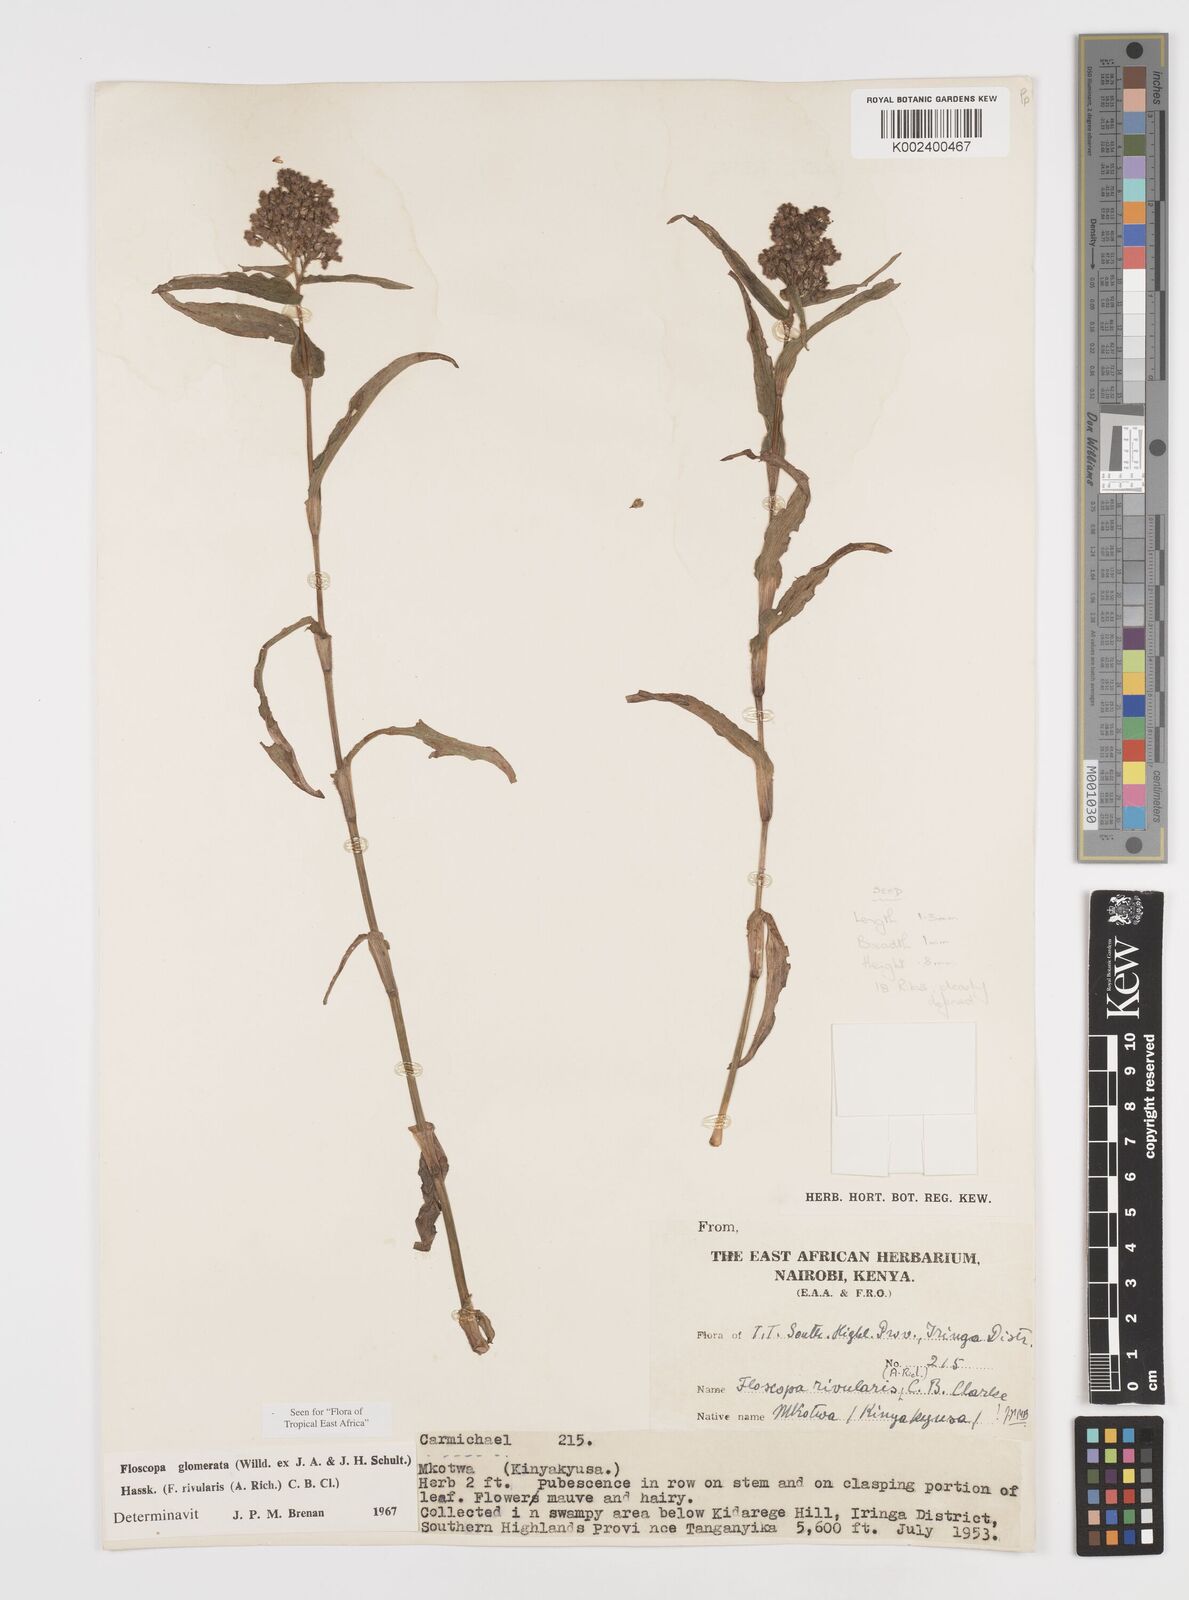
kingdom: Plantae
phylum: Tracheophyta
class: Liliopsida
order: Commelinales
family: Commelinaceae
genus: Floscopa
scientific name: Floscopa glomerata
